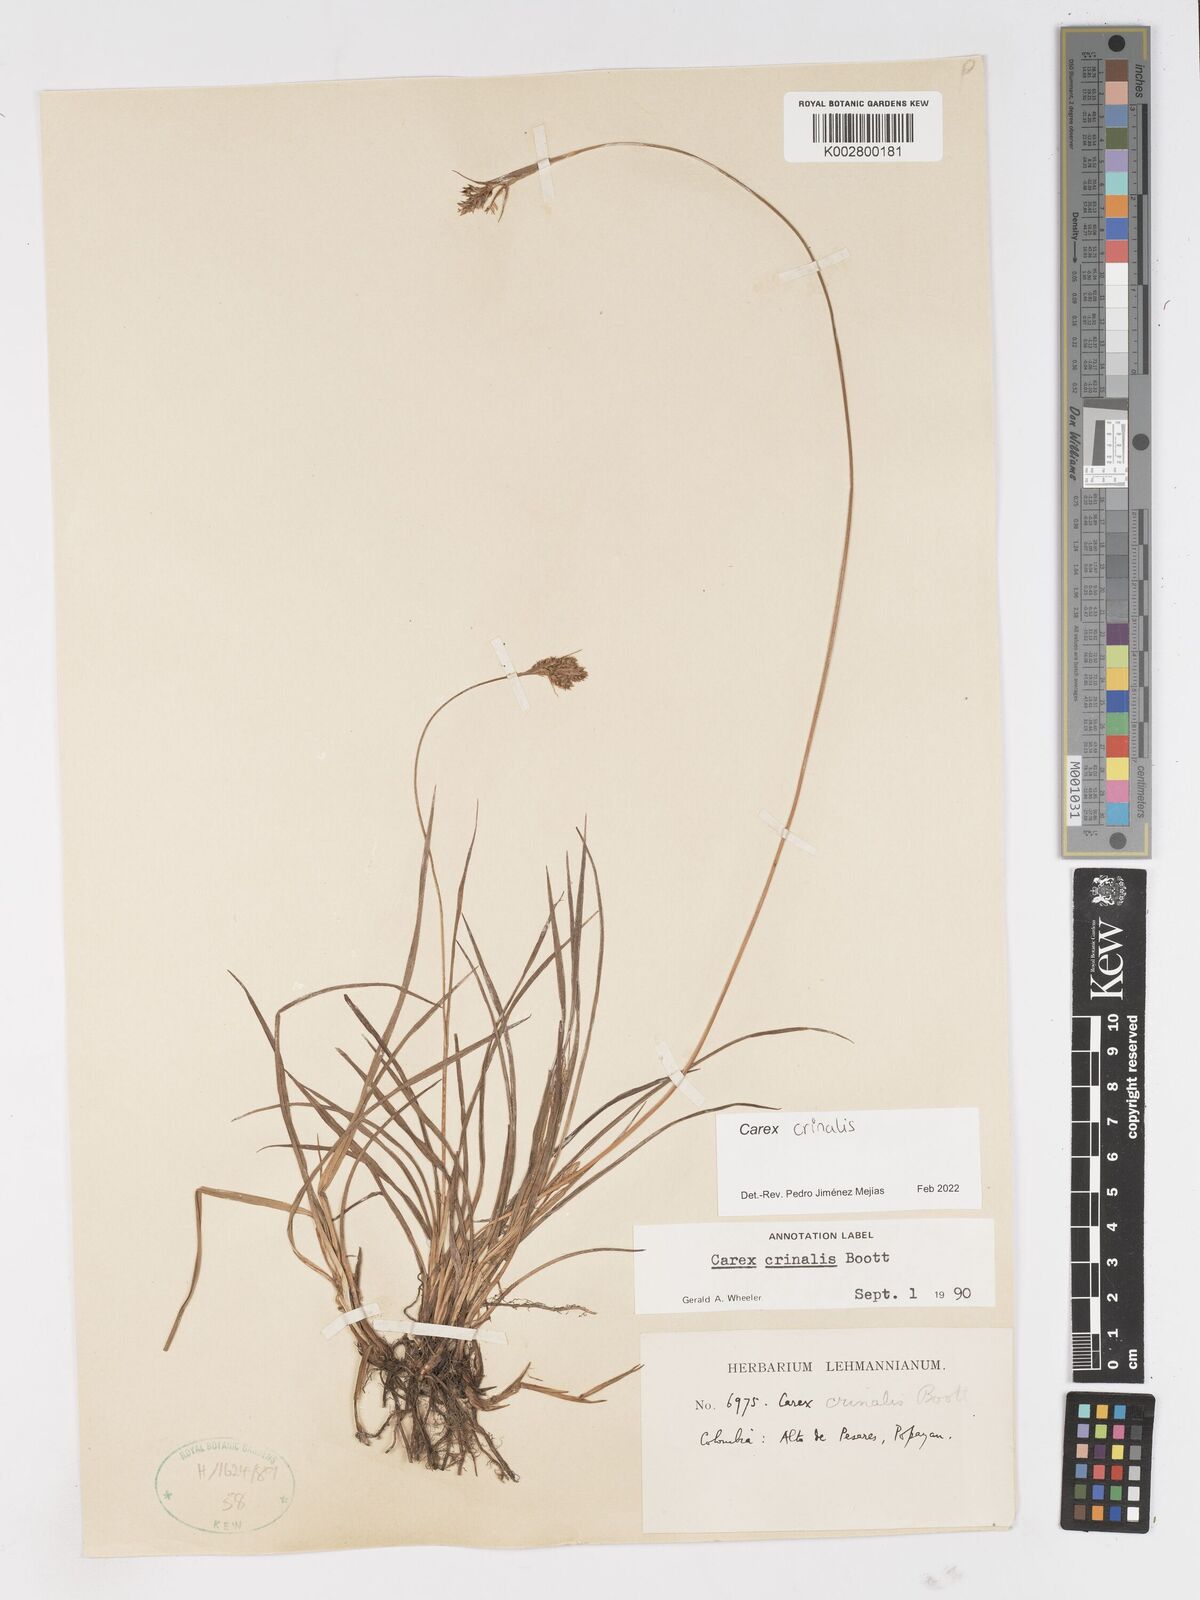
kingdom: Plantae
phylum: Tracheophyta
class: Liliopsida
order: Poales
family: Cyperaceae
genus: Carex
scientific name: Carex crinalis
